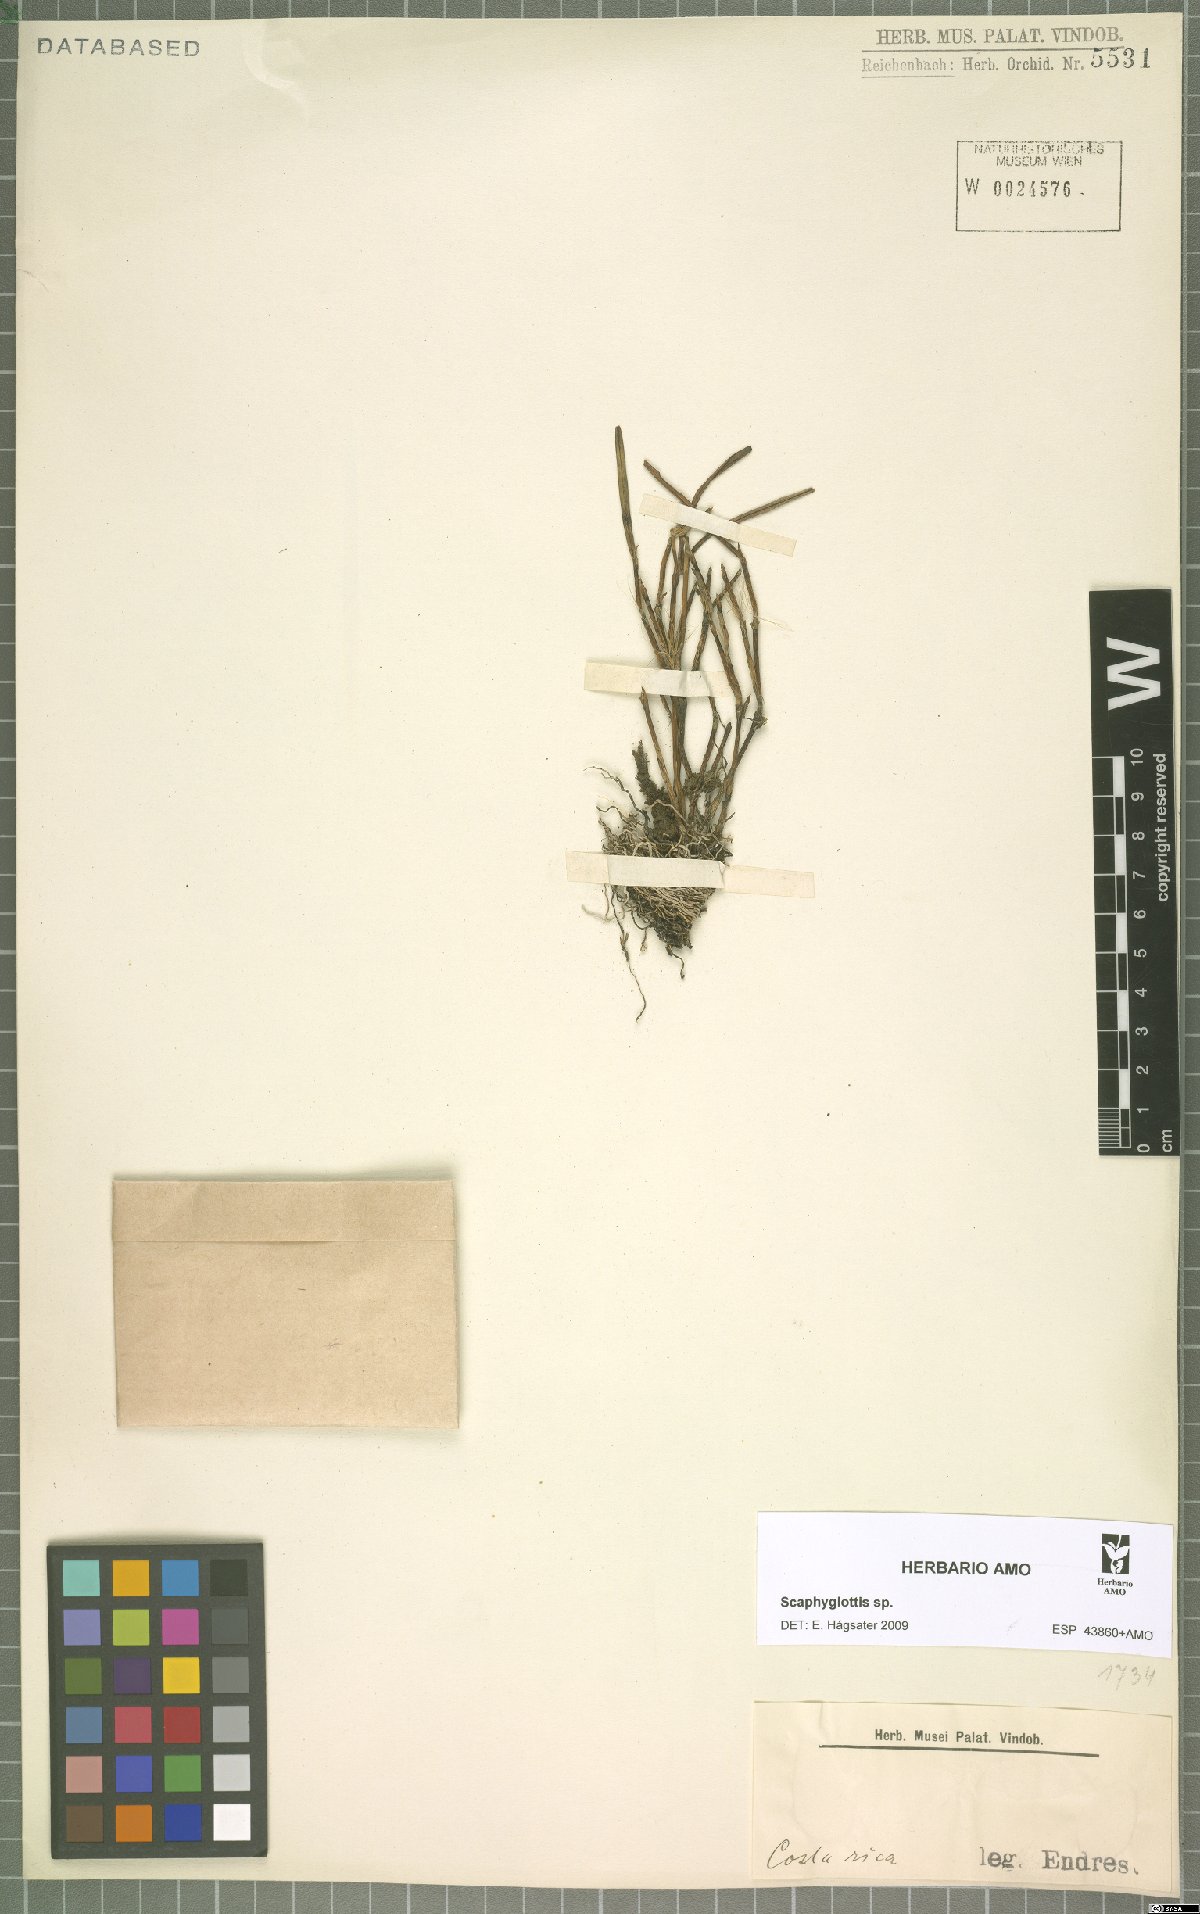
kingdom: Plantae
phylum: Tracheophyta
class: Liliopsida
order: Asparagales
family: Orchidaceae
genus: Scaphyglottis
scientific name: Scaphyglottis
